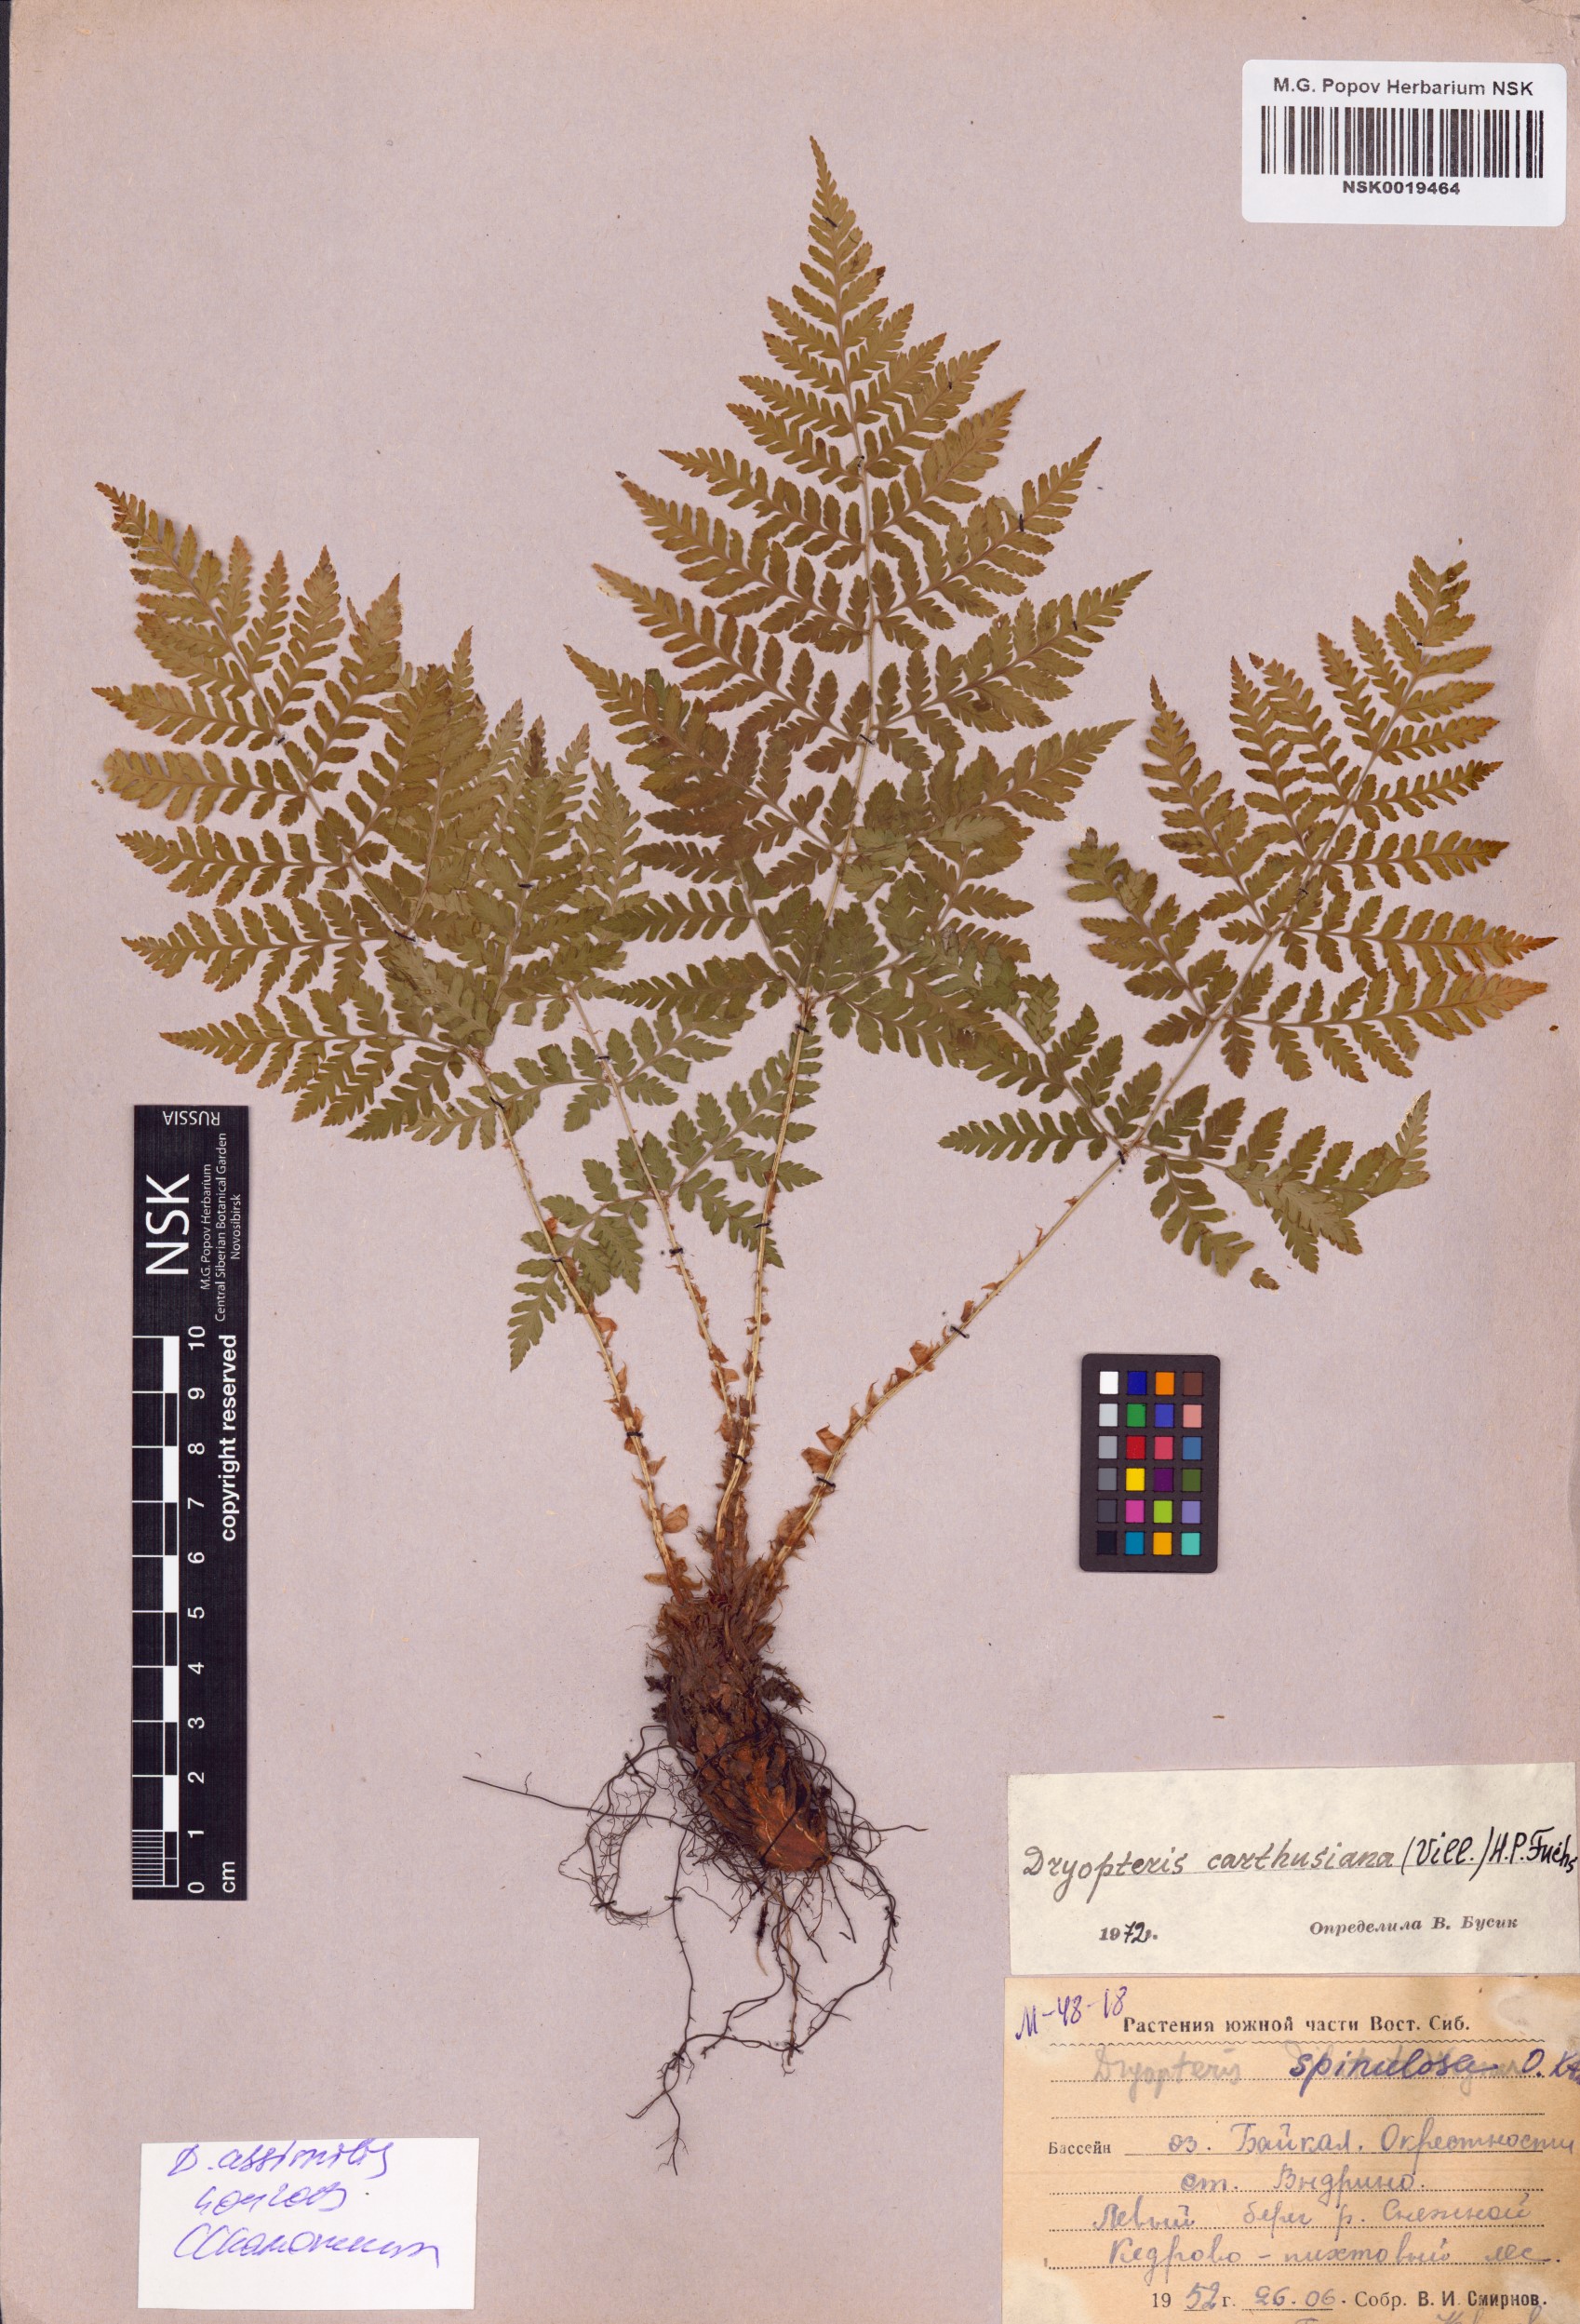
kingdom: Plantae
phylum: Tracheophyta
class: Polypodiopsida
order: Polypodiales
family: Dryopteridaceae
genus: Dryopteris
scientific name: Dryopteris expansa
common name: Northern buckler fern
